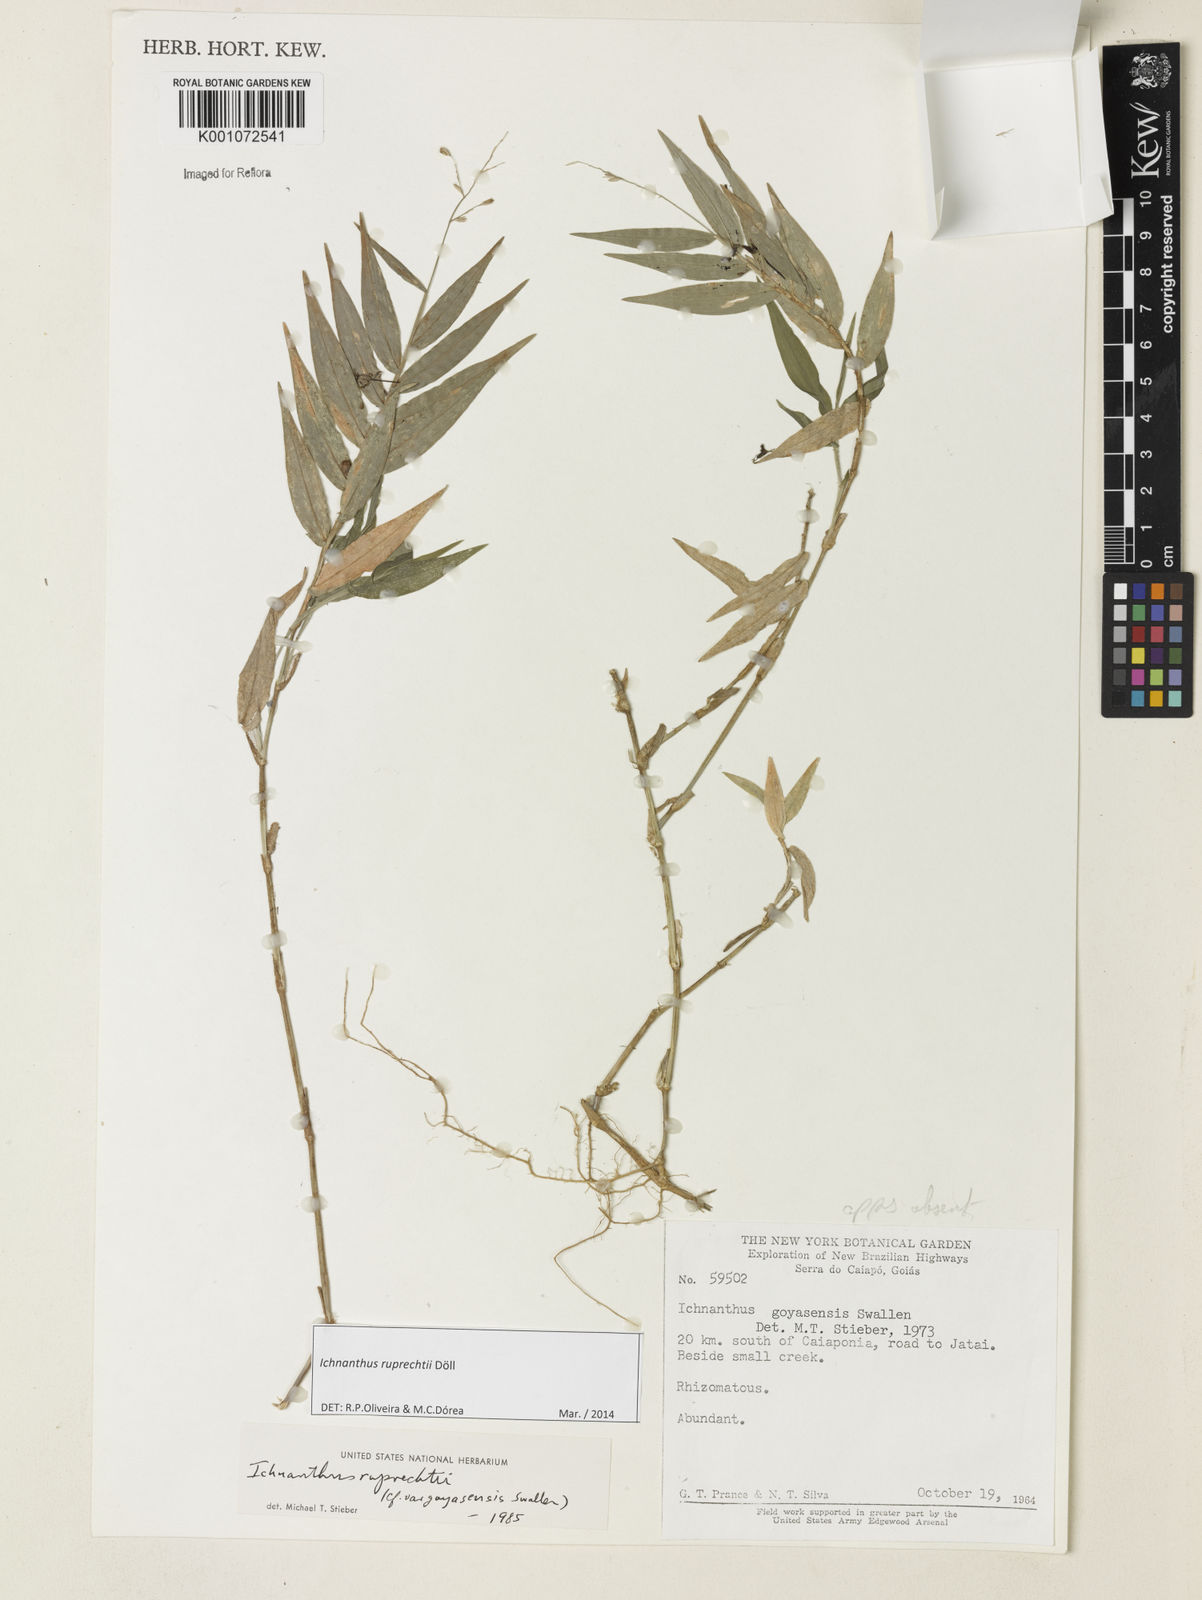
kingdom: Plantae
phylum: Tracheophyta
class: Liliopsida
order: Poales
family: Poaceae
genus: Ichnanthus
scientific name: Ichnanthus
